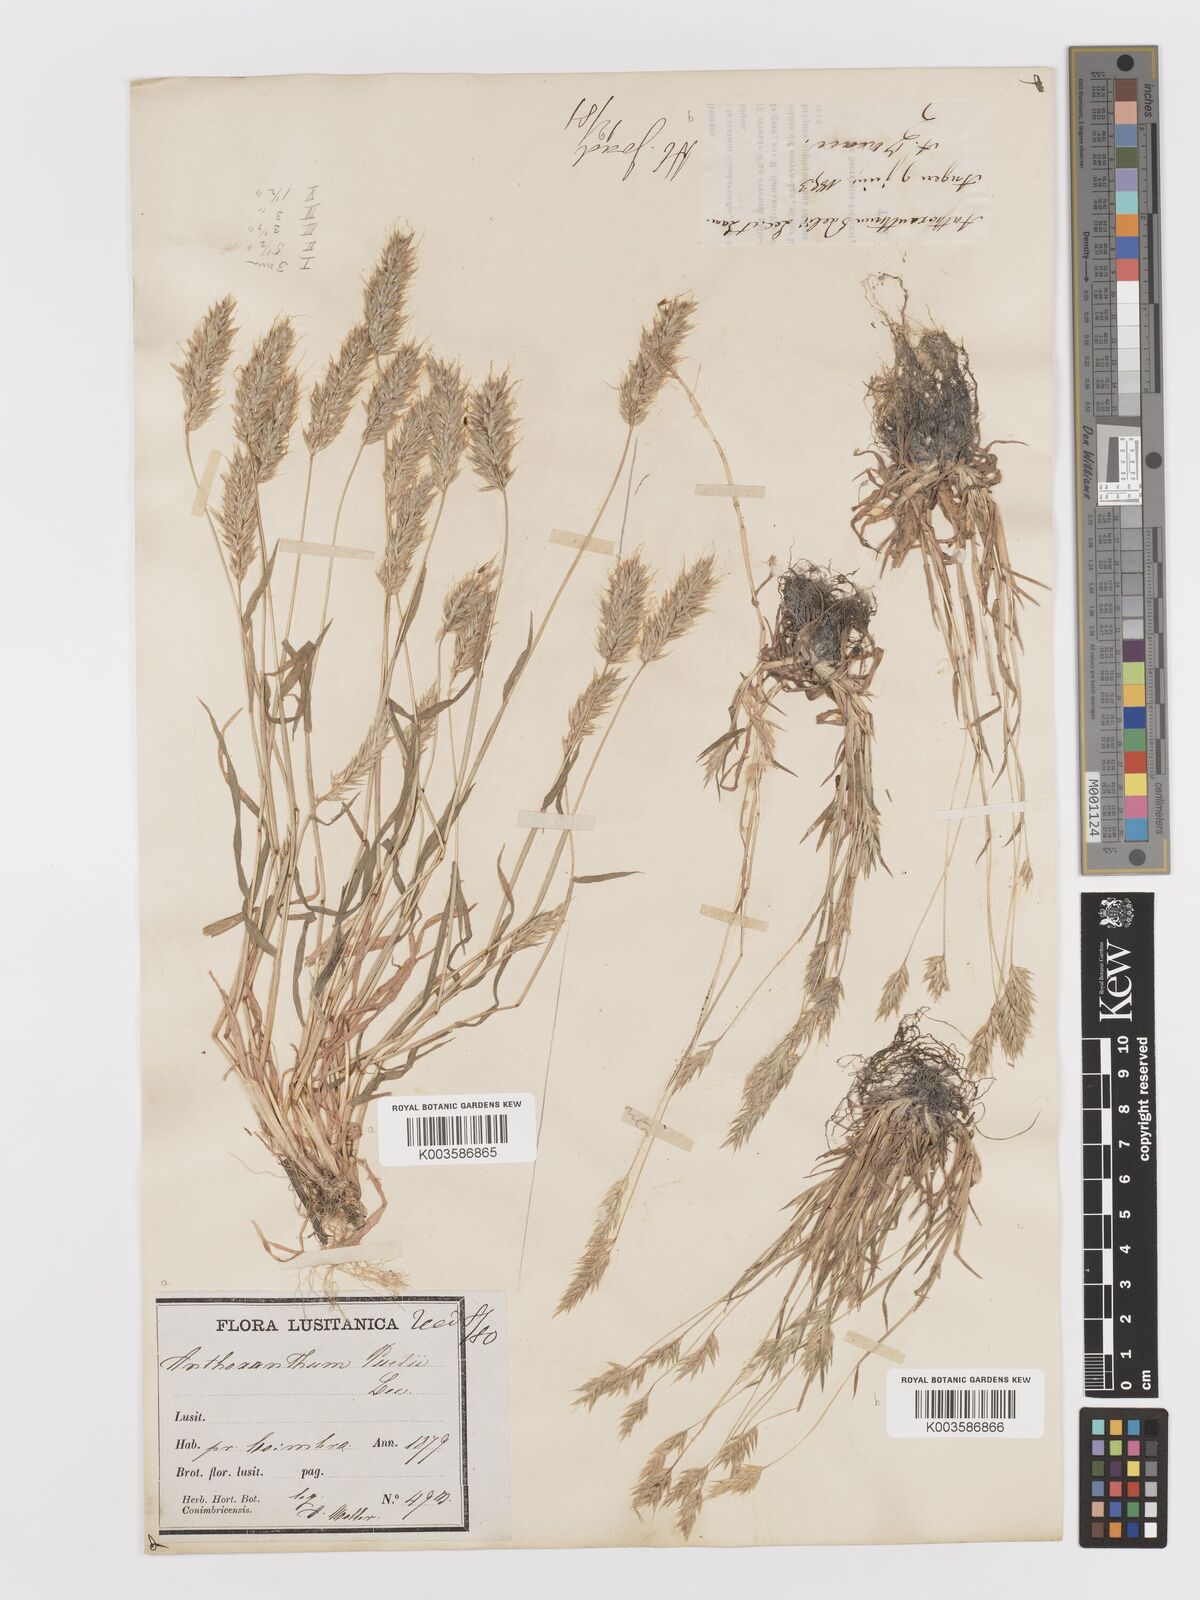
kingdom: Plantae
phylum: Tracheophyta
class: Liliopsida
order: Poales
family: Poaceae
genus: Anthoxanthum
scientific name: Anthoxanthum
